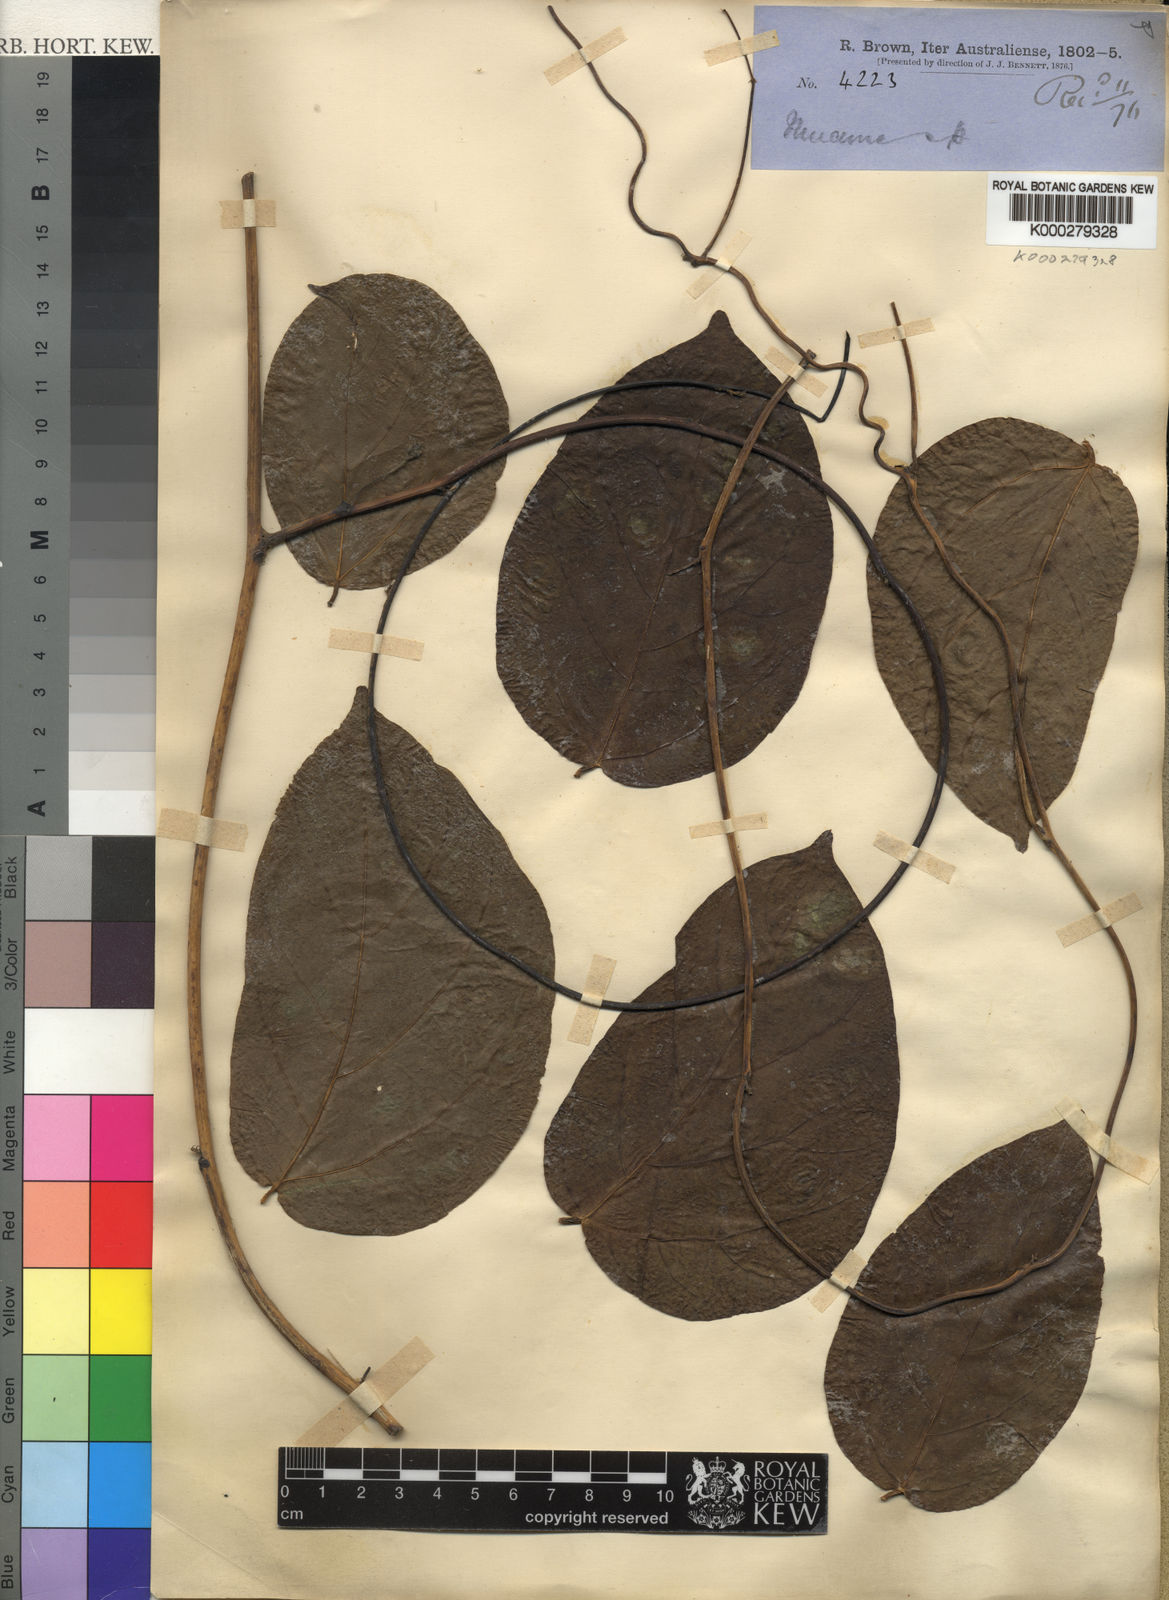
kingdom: Plantae
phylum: Tracheophyta
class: Magnoliopsida
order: Fabales
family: Fabaceae
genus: Mucuna
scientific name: Mucuna
